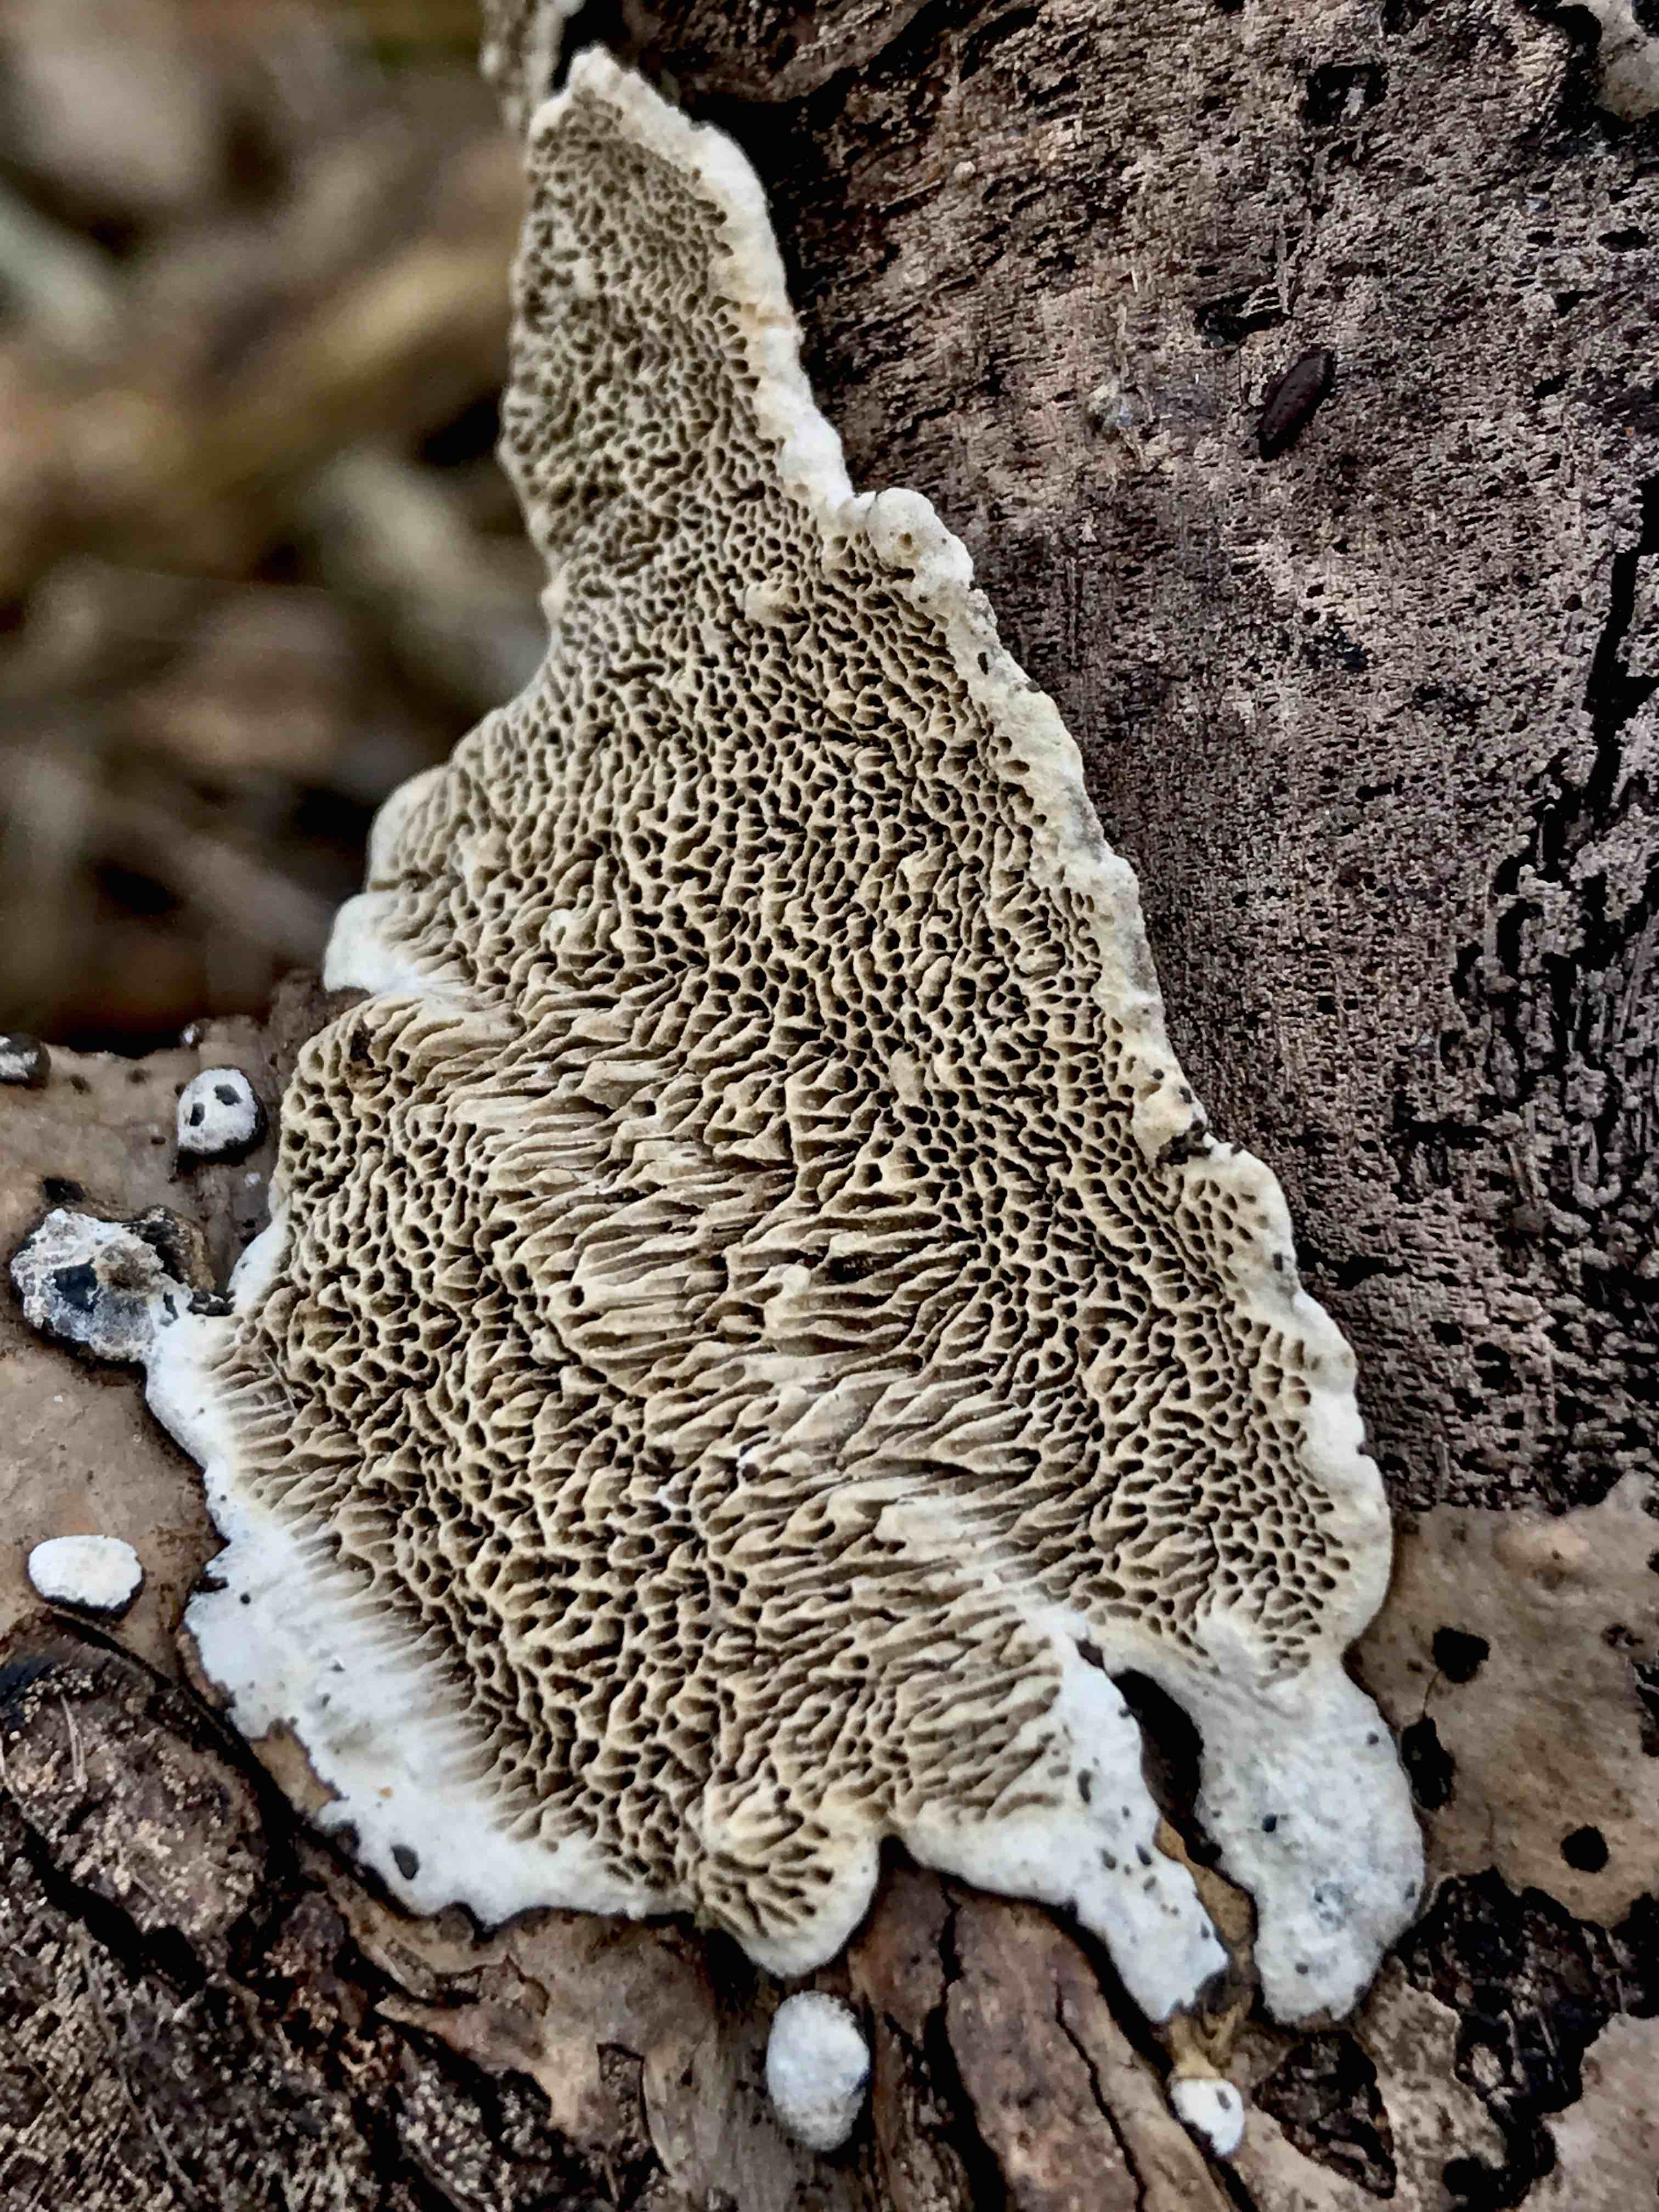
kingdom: Fungi
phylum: Basidiomycota
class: Agaricomycetes
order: Polyporales
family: Polyporaceae
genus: Podofomes
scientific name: Podofomes mollis
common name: blød begporesvamp
